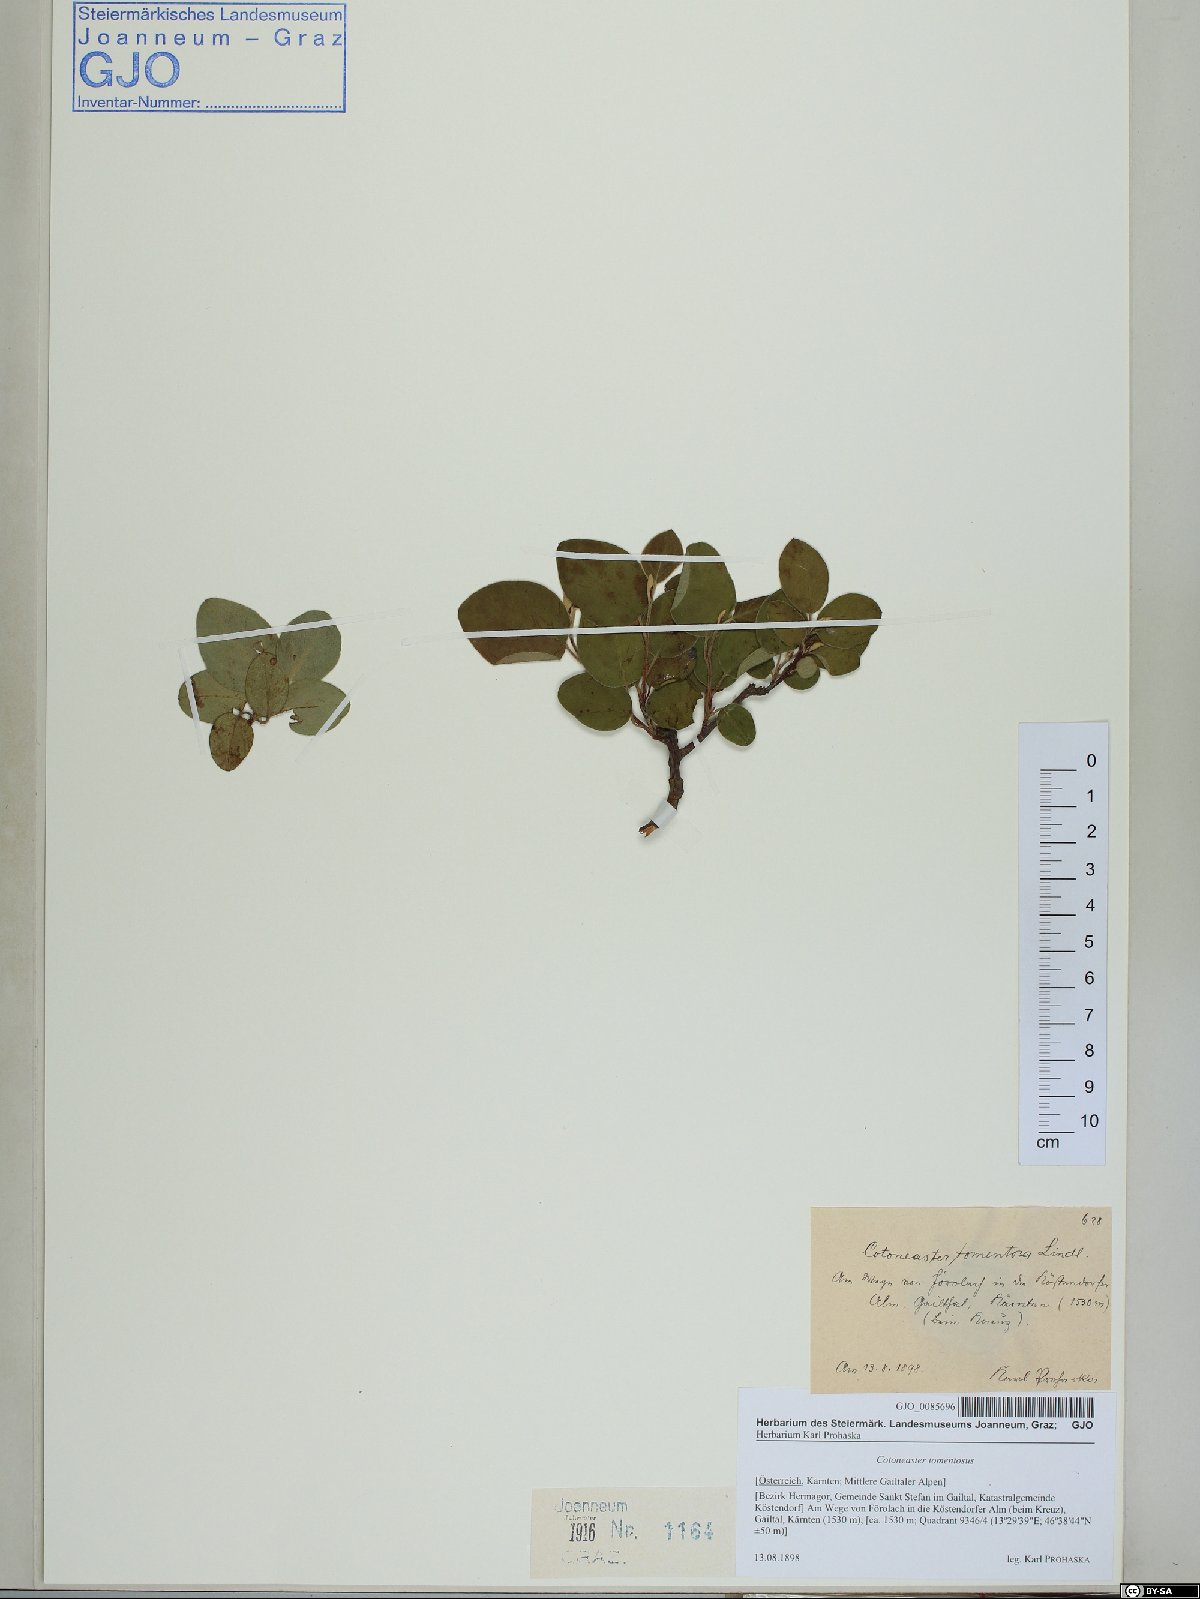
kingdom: Plantae
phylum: Tracheophyta
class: Magnoliopsida
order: Rosales
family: Rosaceae
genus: Cotoneaster
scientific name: Cotoneaster tomentosus
